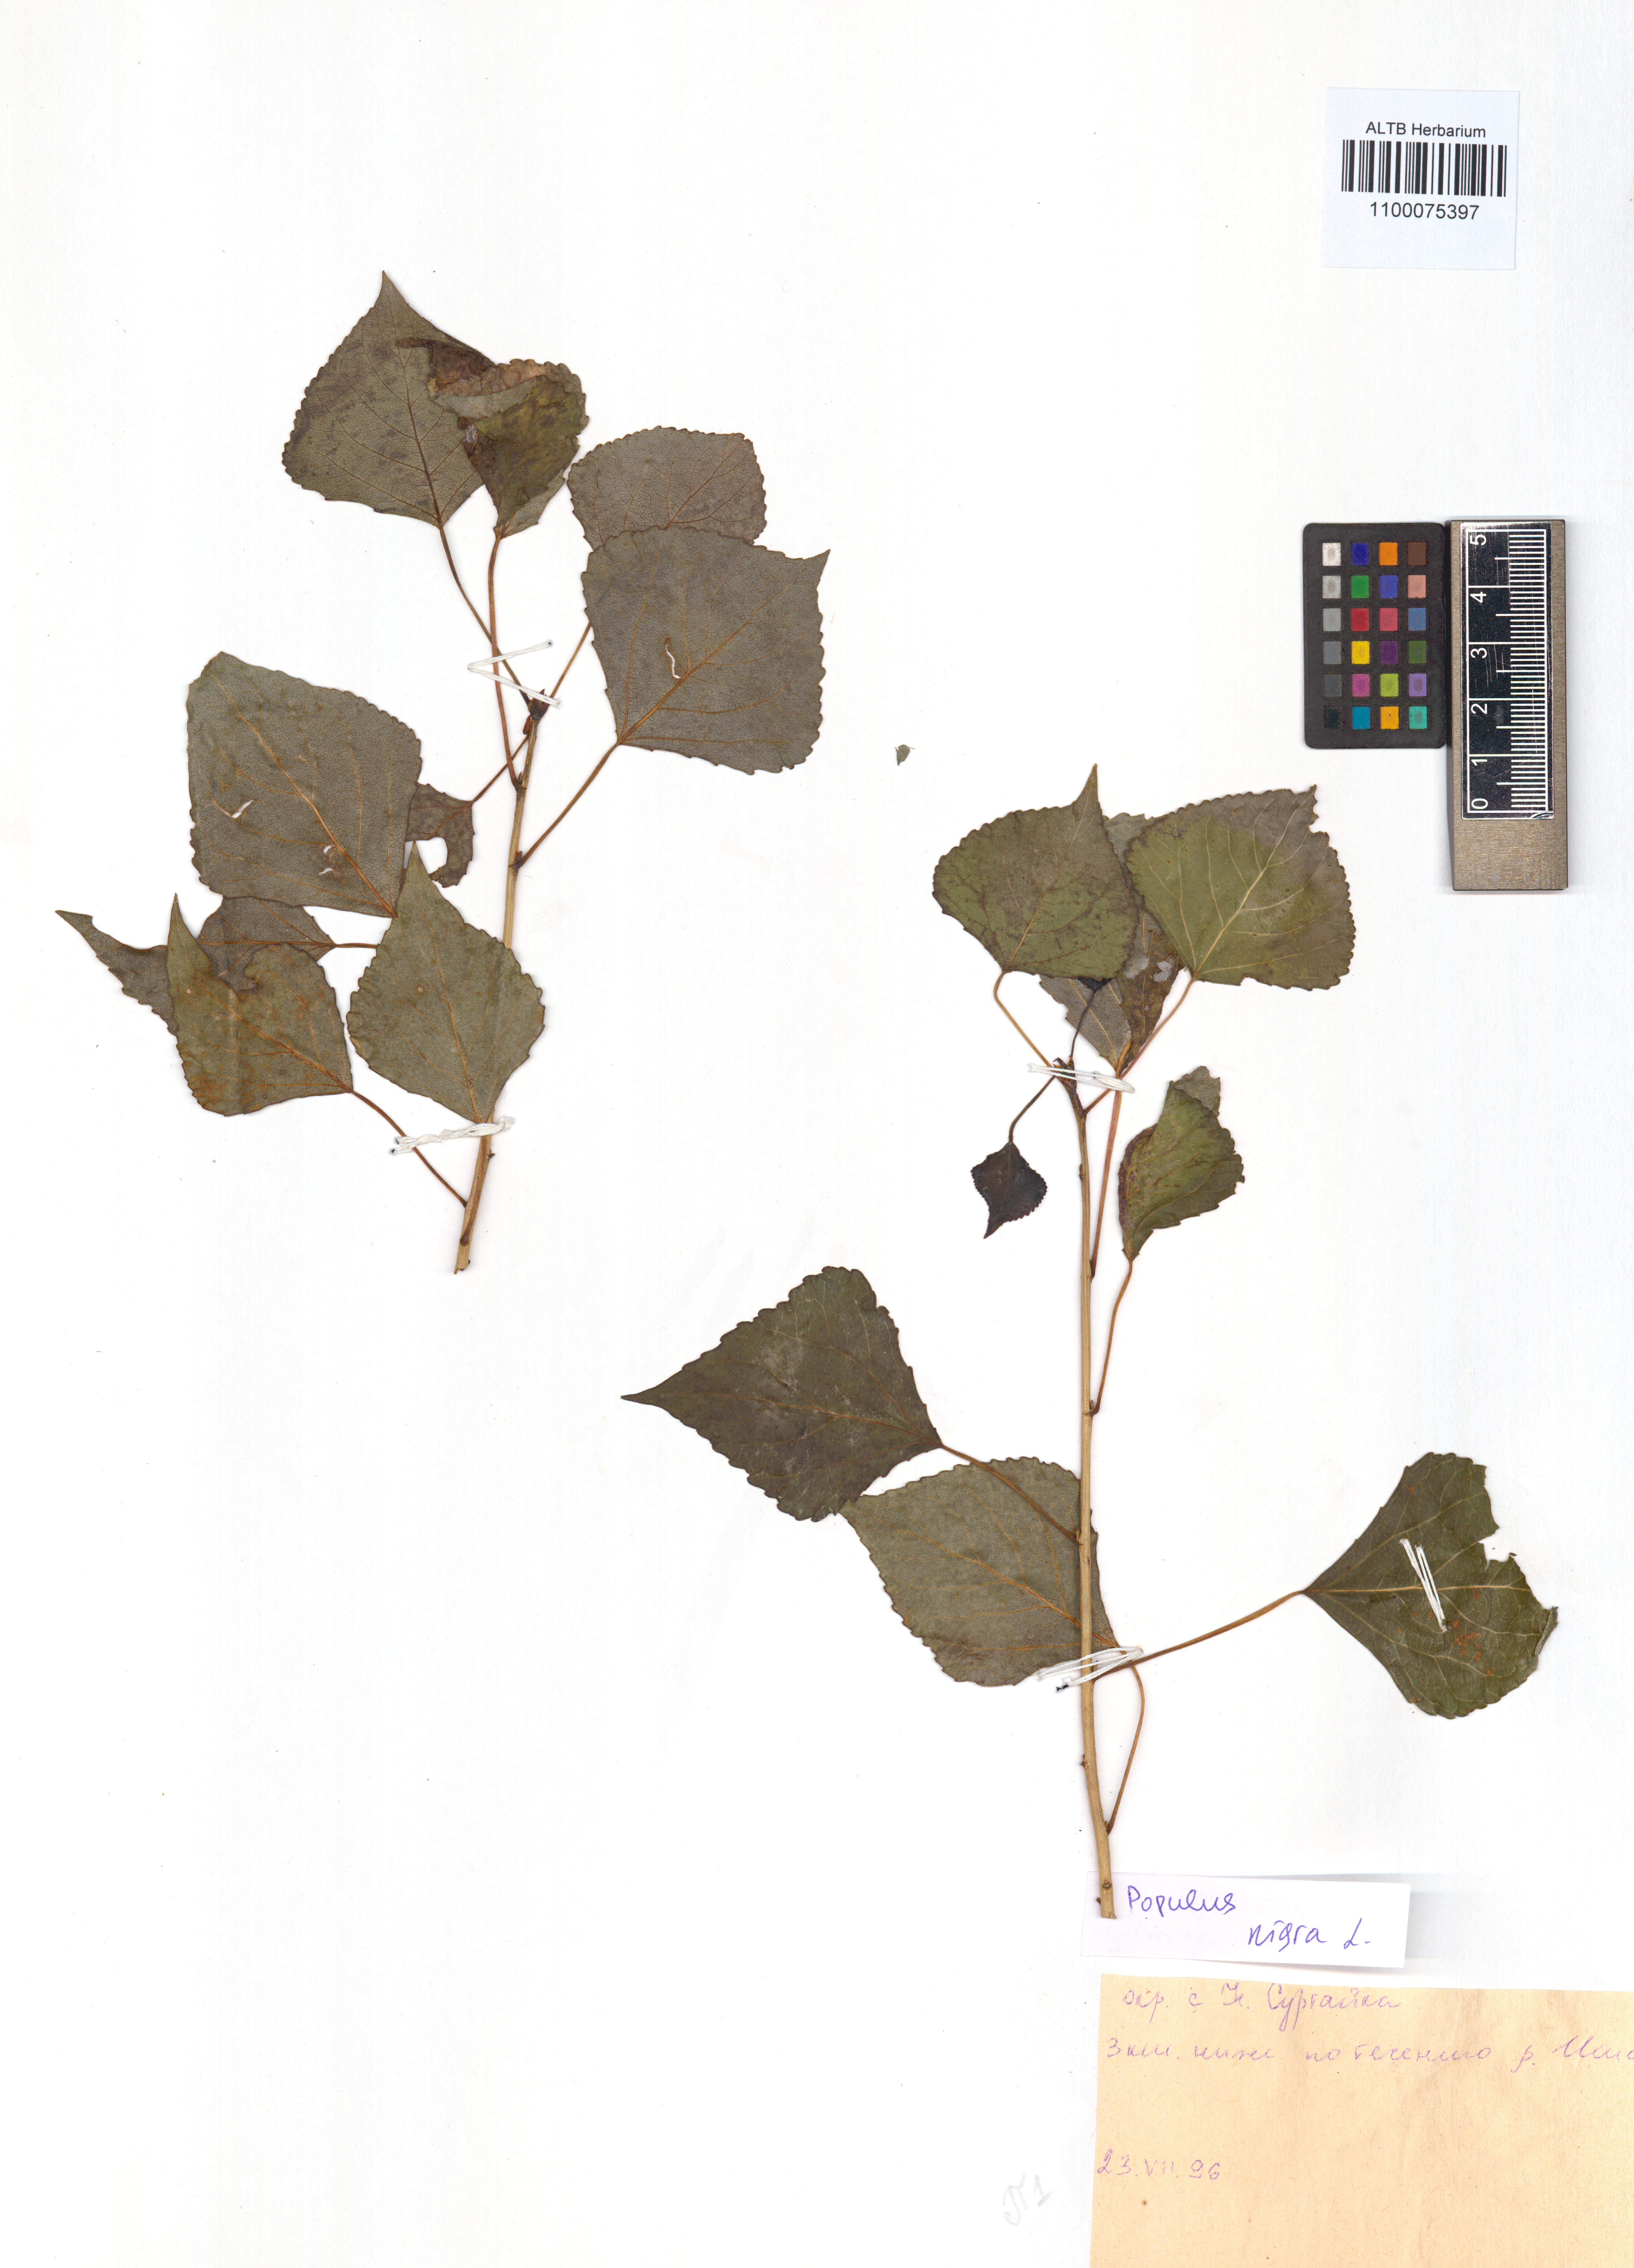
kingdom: Plantae
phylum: Tracheophyta
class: Magnoliopsida
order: Malpighiales
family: Salicaceae
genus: Populus
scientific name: Populus nigra
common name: Black poplar
